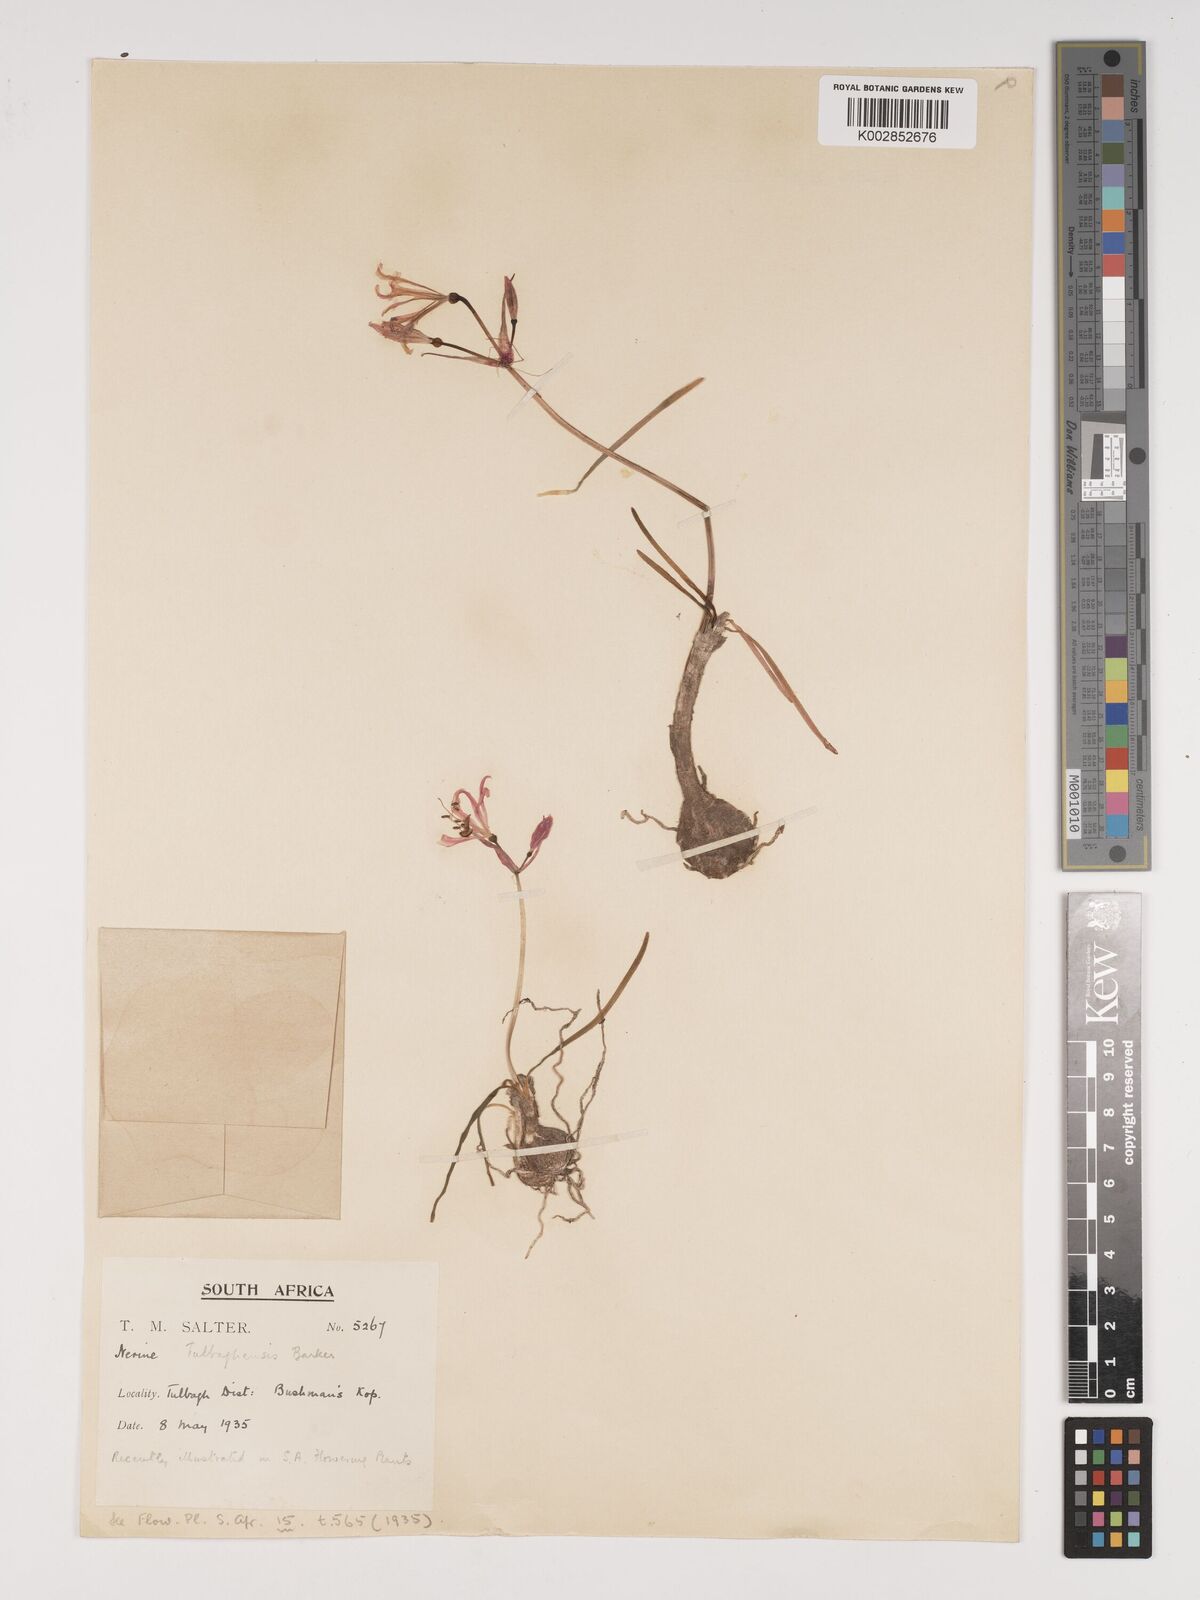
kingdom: Plantae
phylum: Tracheophyta
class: Liliopsida
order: Asparagales
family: Amaryllidaceae
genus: Nerine
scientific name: Nerine humilis
